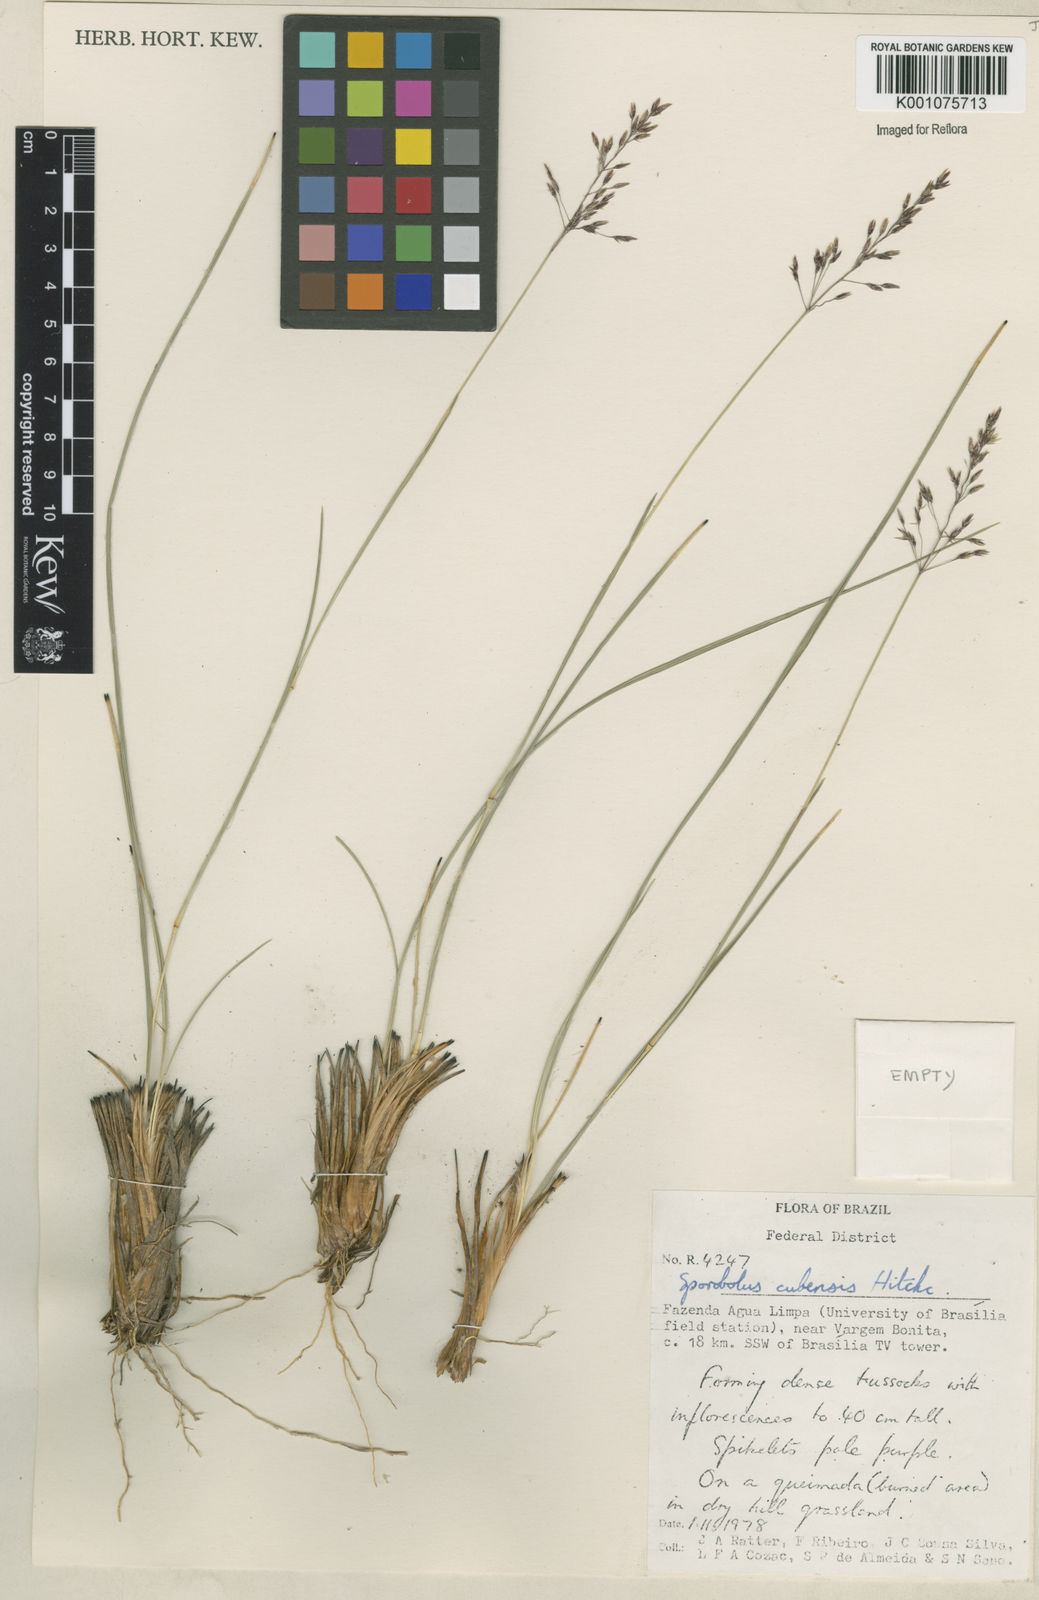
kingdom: Plantae
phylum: Tracheophyta
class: Liliopsida
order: Poales
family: Poaceae
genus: Sporobolus
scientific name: Sporobolus cubensis
